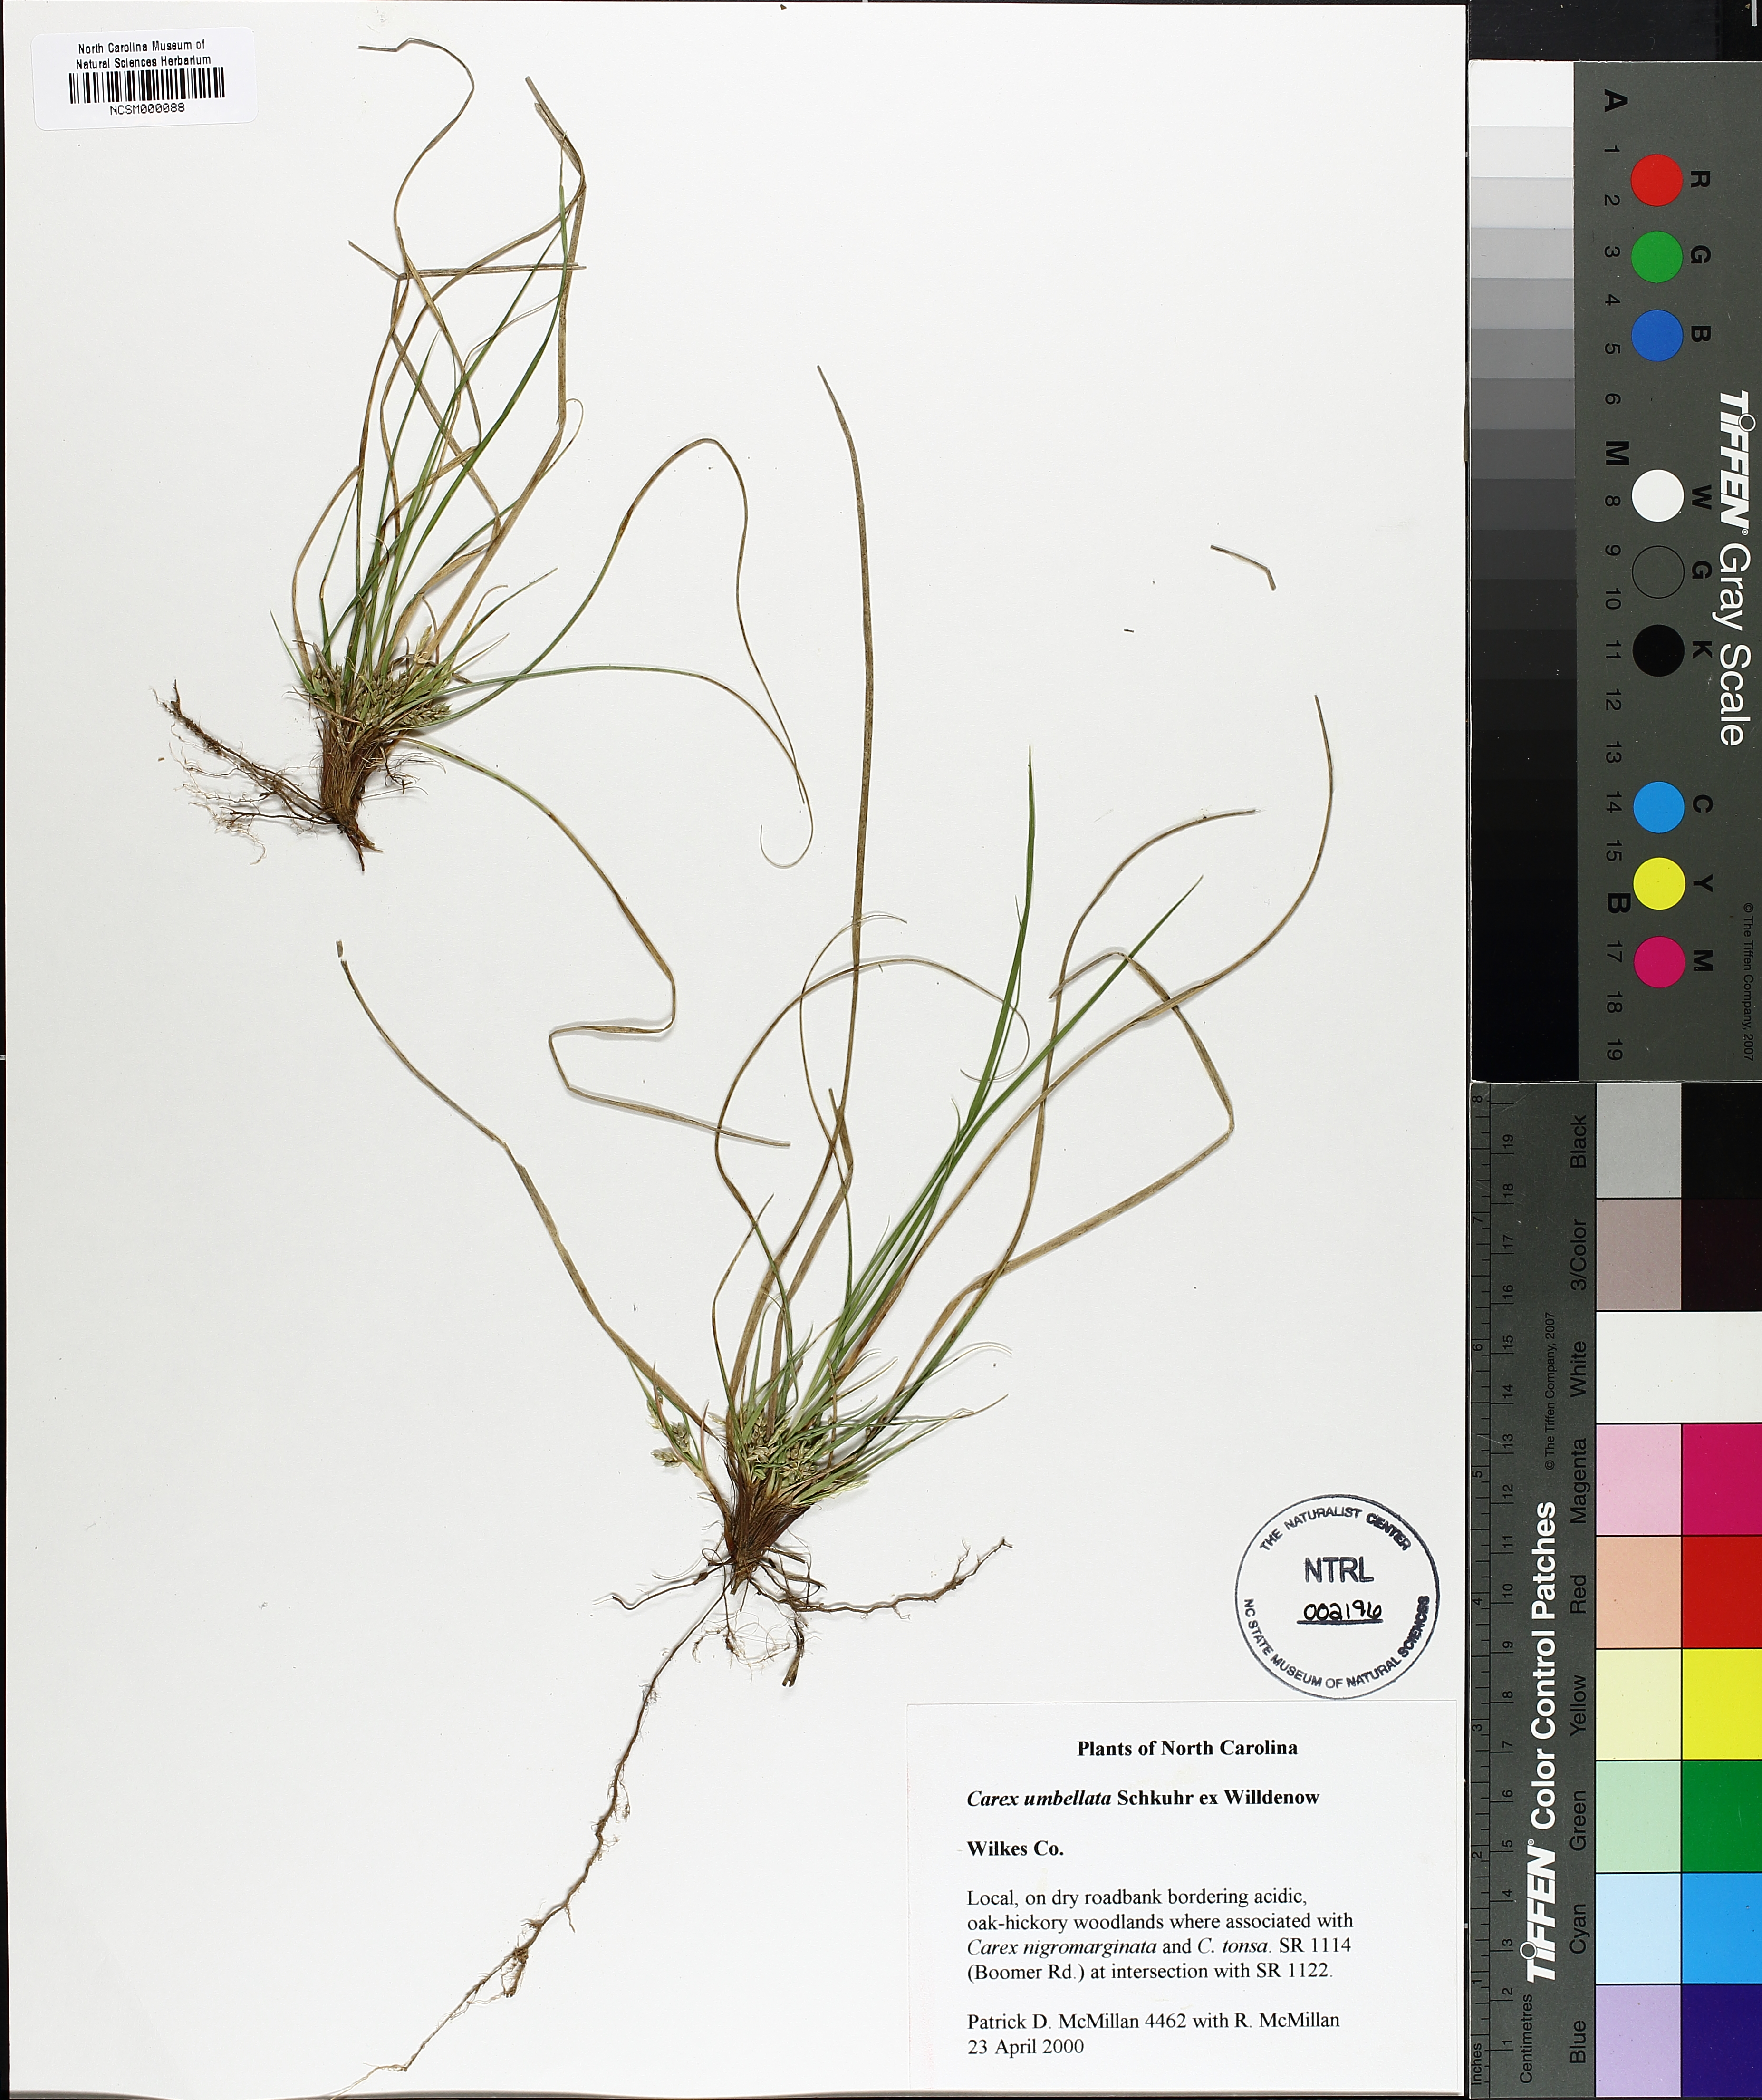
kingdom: Plantae
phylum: Tracheophyta
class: Liliopsida
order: Poales
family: Cyperaceae
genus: Carex
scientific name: Carex umbellata
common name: Early oak sedge
